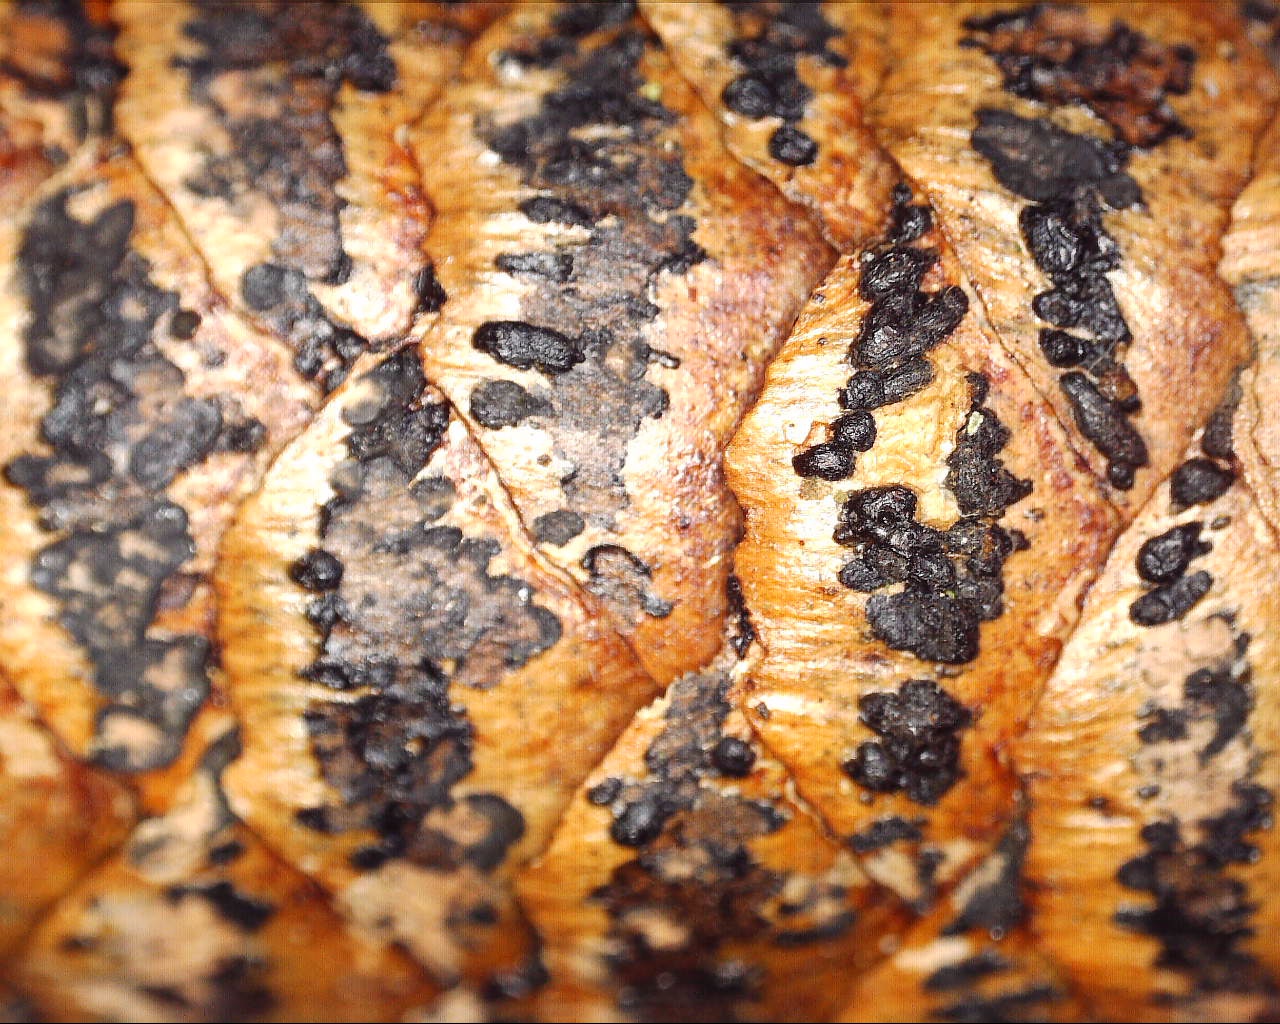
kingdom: Fungi
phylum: Ascomycota
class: Dothideomycetes
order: Pleosporales
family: Melanommataceae
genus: Phragmotrichum
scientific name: Phragmotrichum chailletii
